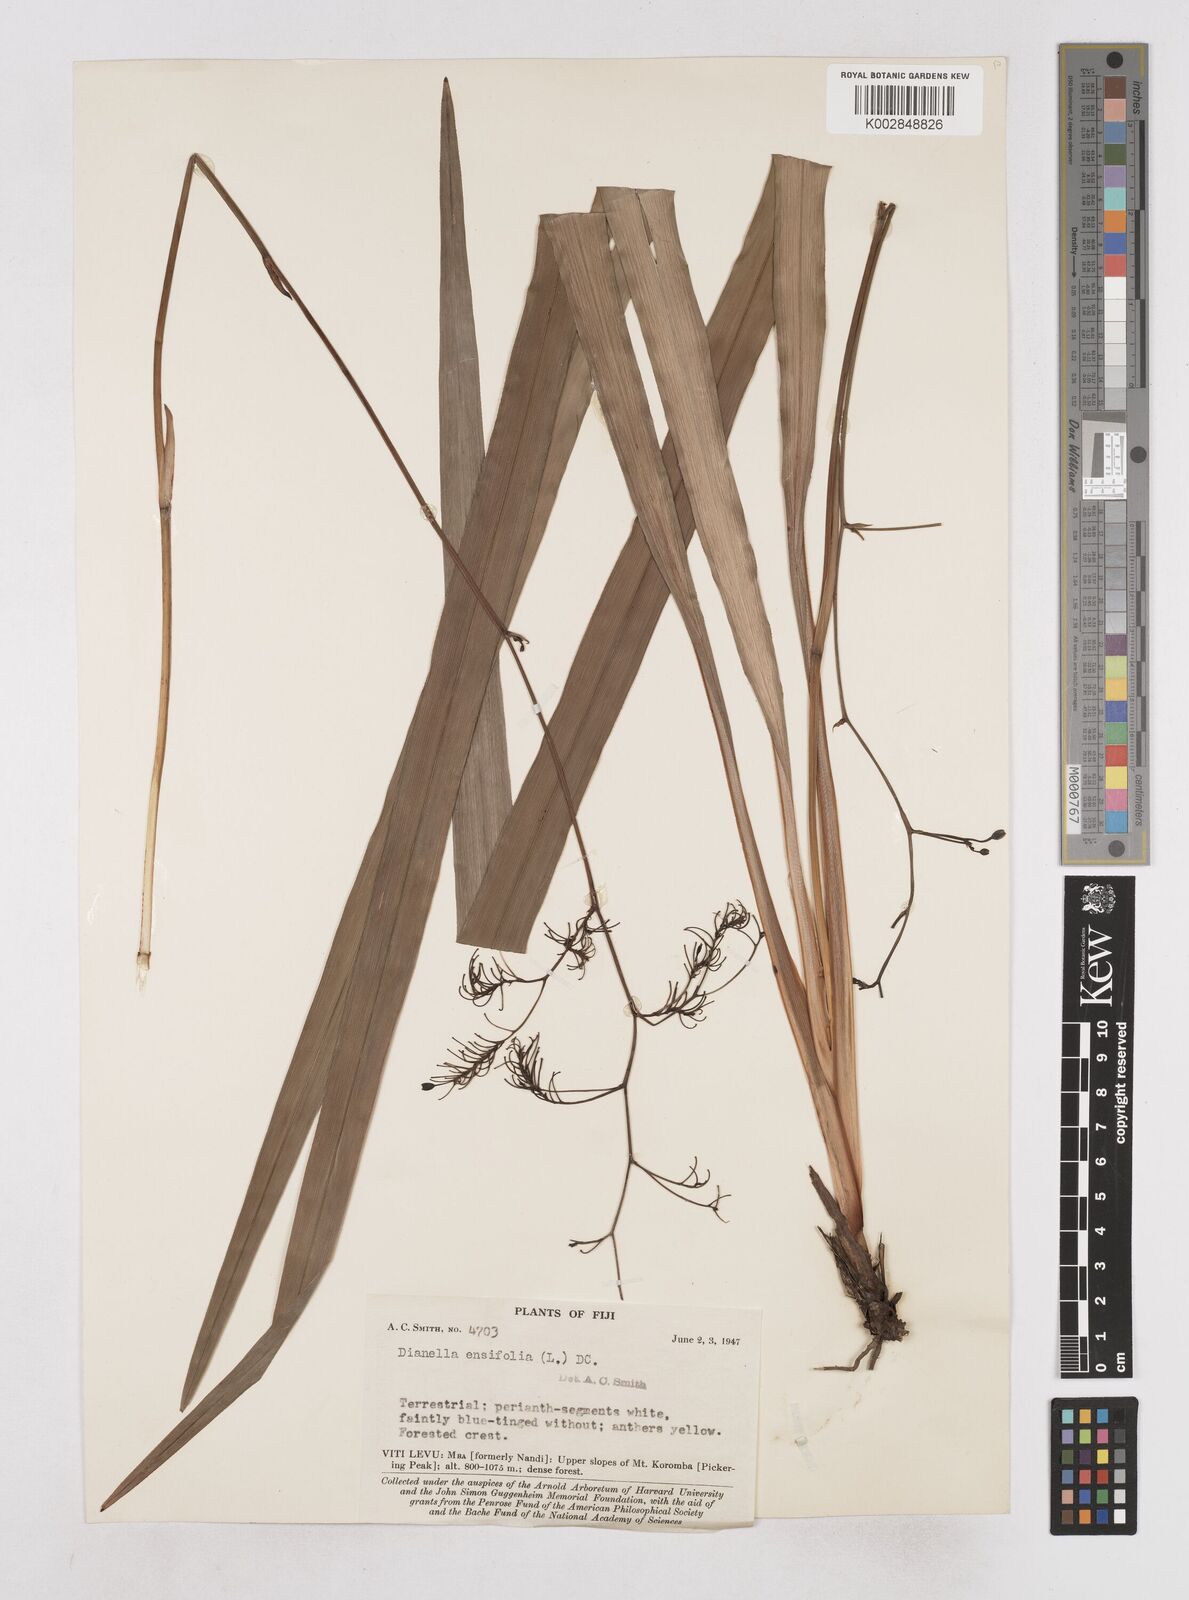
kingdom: Plantae
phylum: Tracheophyta
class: Liliopsida
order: Asparagales
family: Asphodelaceae
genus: Dianella
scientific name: Dianella ensifolia
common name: New zealand lilyplant
